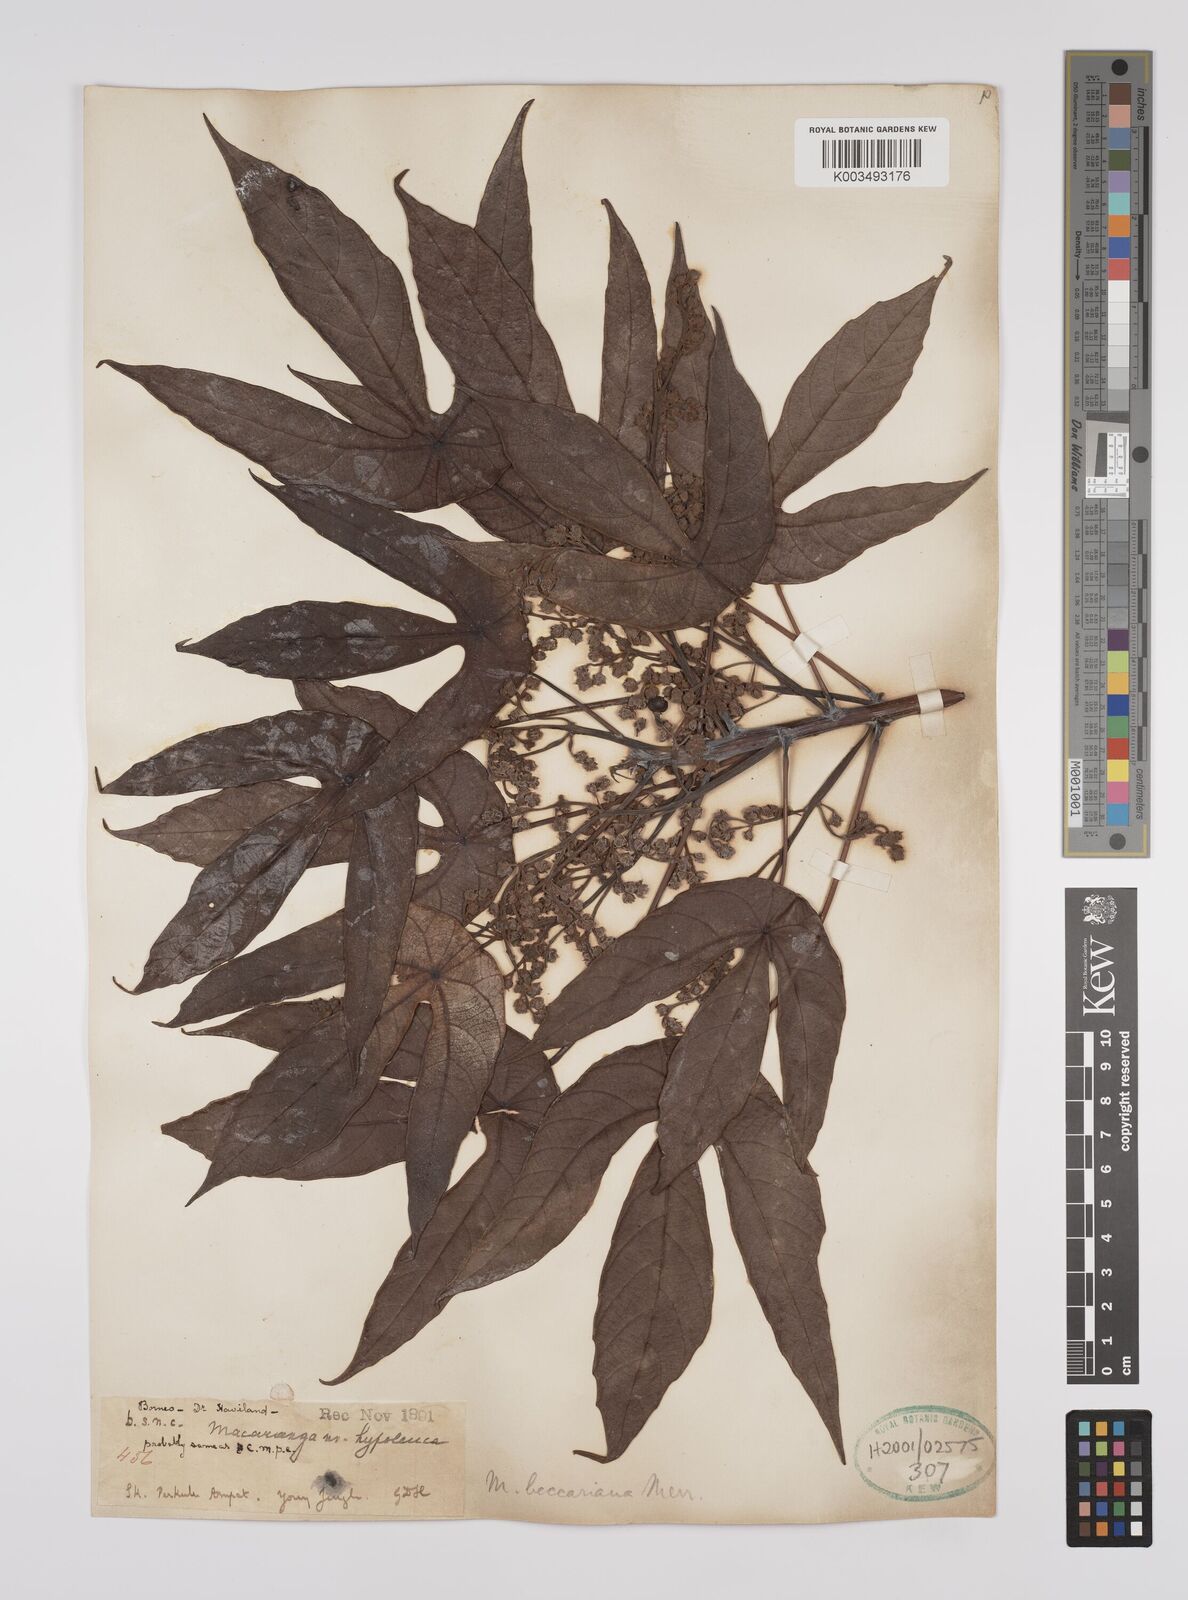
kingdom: Plantae
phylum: Tracheophyta
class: Magnoliopsida
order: Malpighiales
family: Euphorbiaceae
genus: Macaranga
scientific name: Macaranga beccariana
